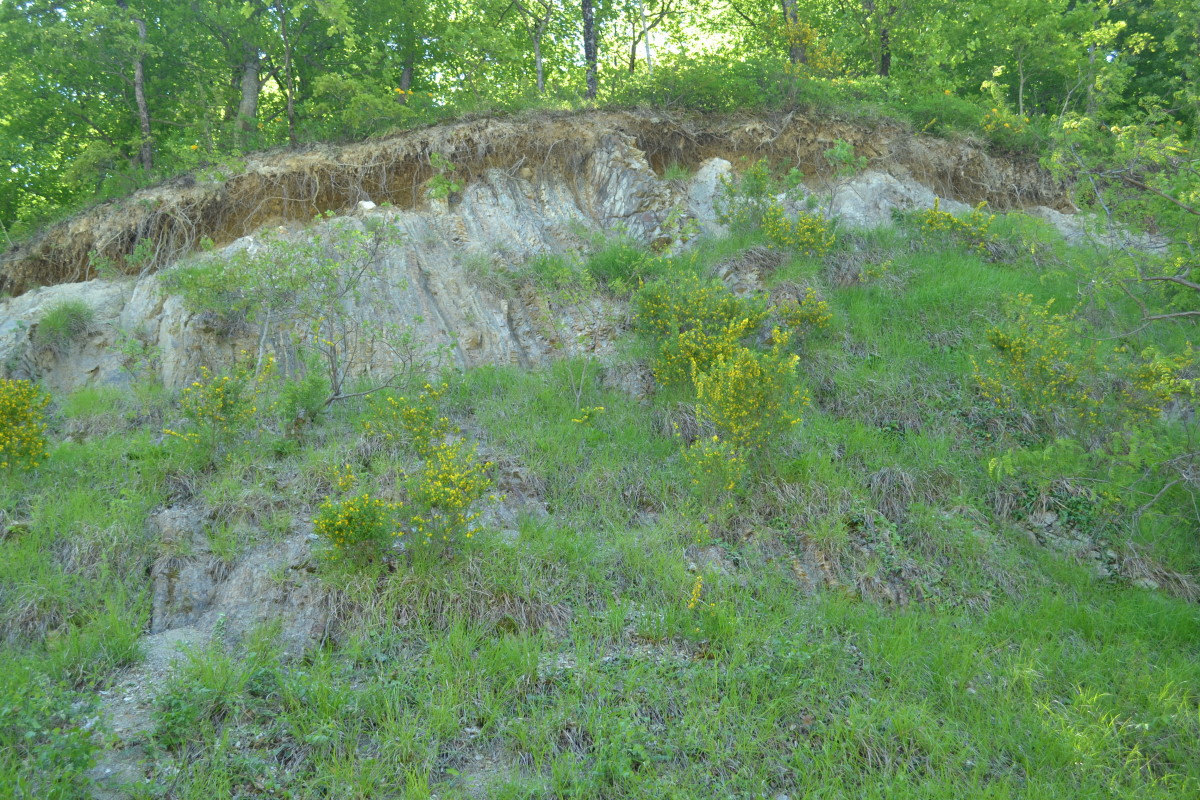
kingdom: Plantae
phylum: Tracheophyta
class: Magnoliopsida
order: Lamiales
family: Oleaceae
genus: Chrysojasminum
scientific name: Chrysojasminum fruticans
